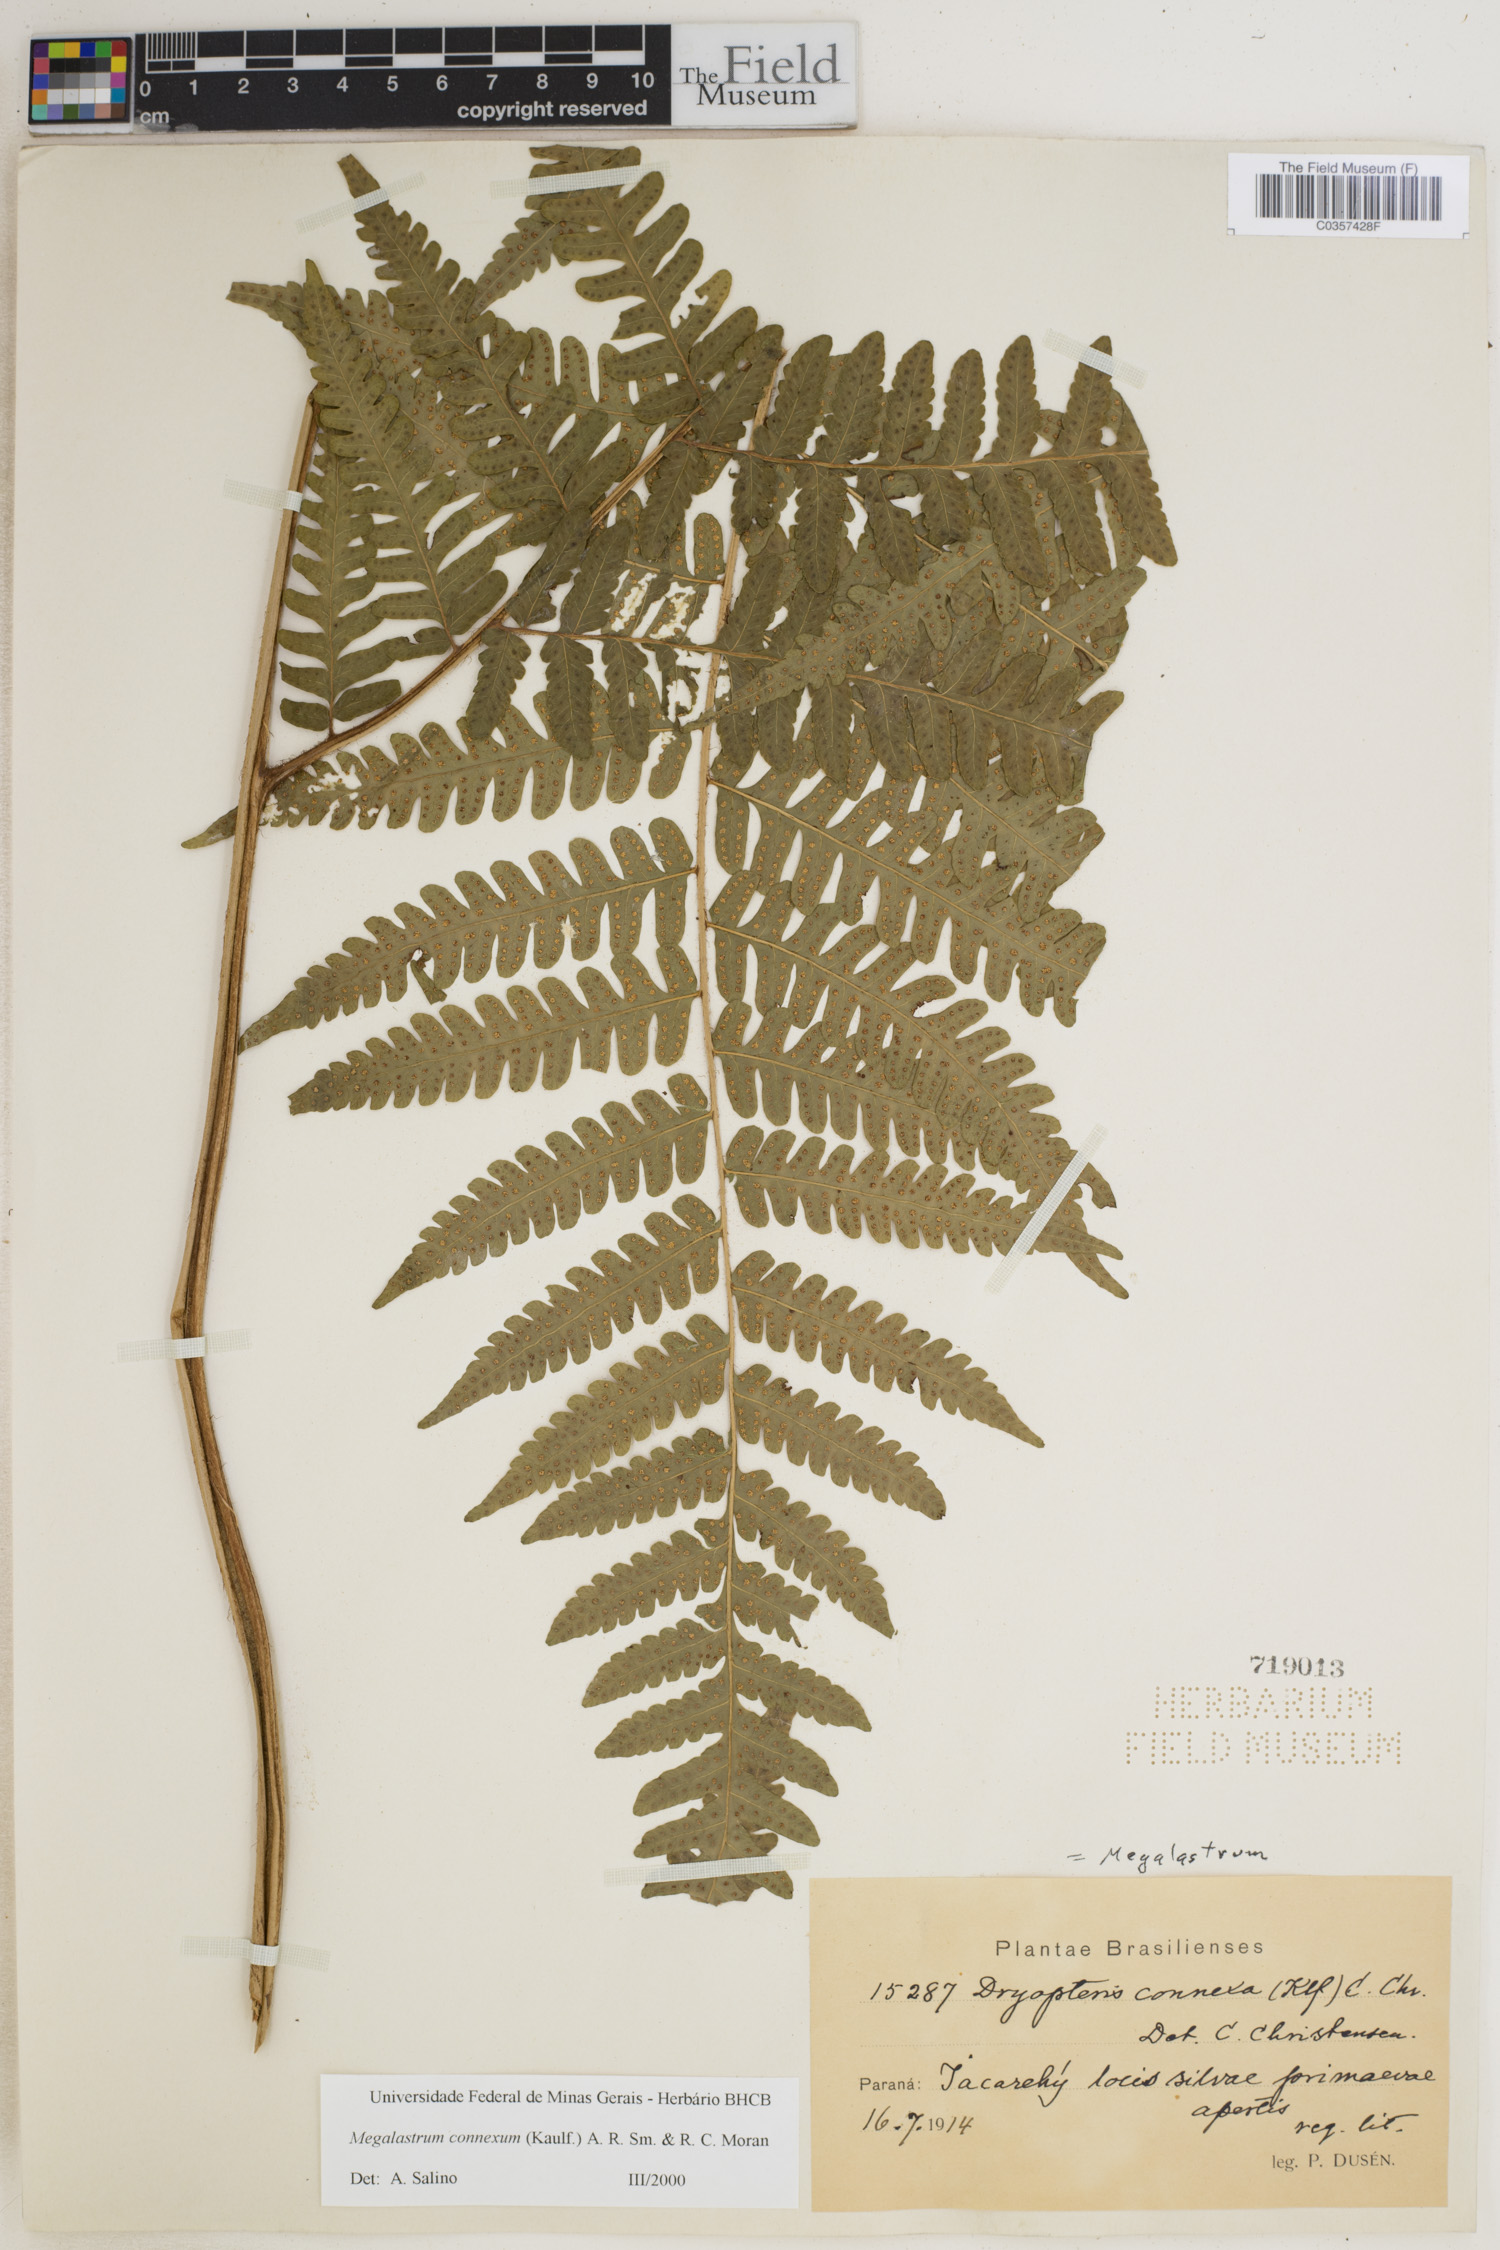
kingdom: Plantae
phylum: Tracheophyta
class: Polypodiopsida
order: Polypodiales
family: Dryopteridaceae
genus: Megalastrum
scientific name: Megalastrum connexum
